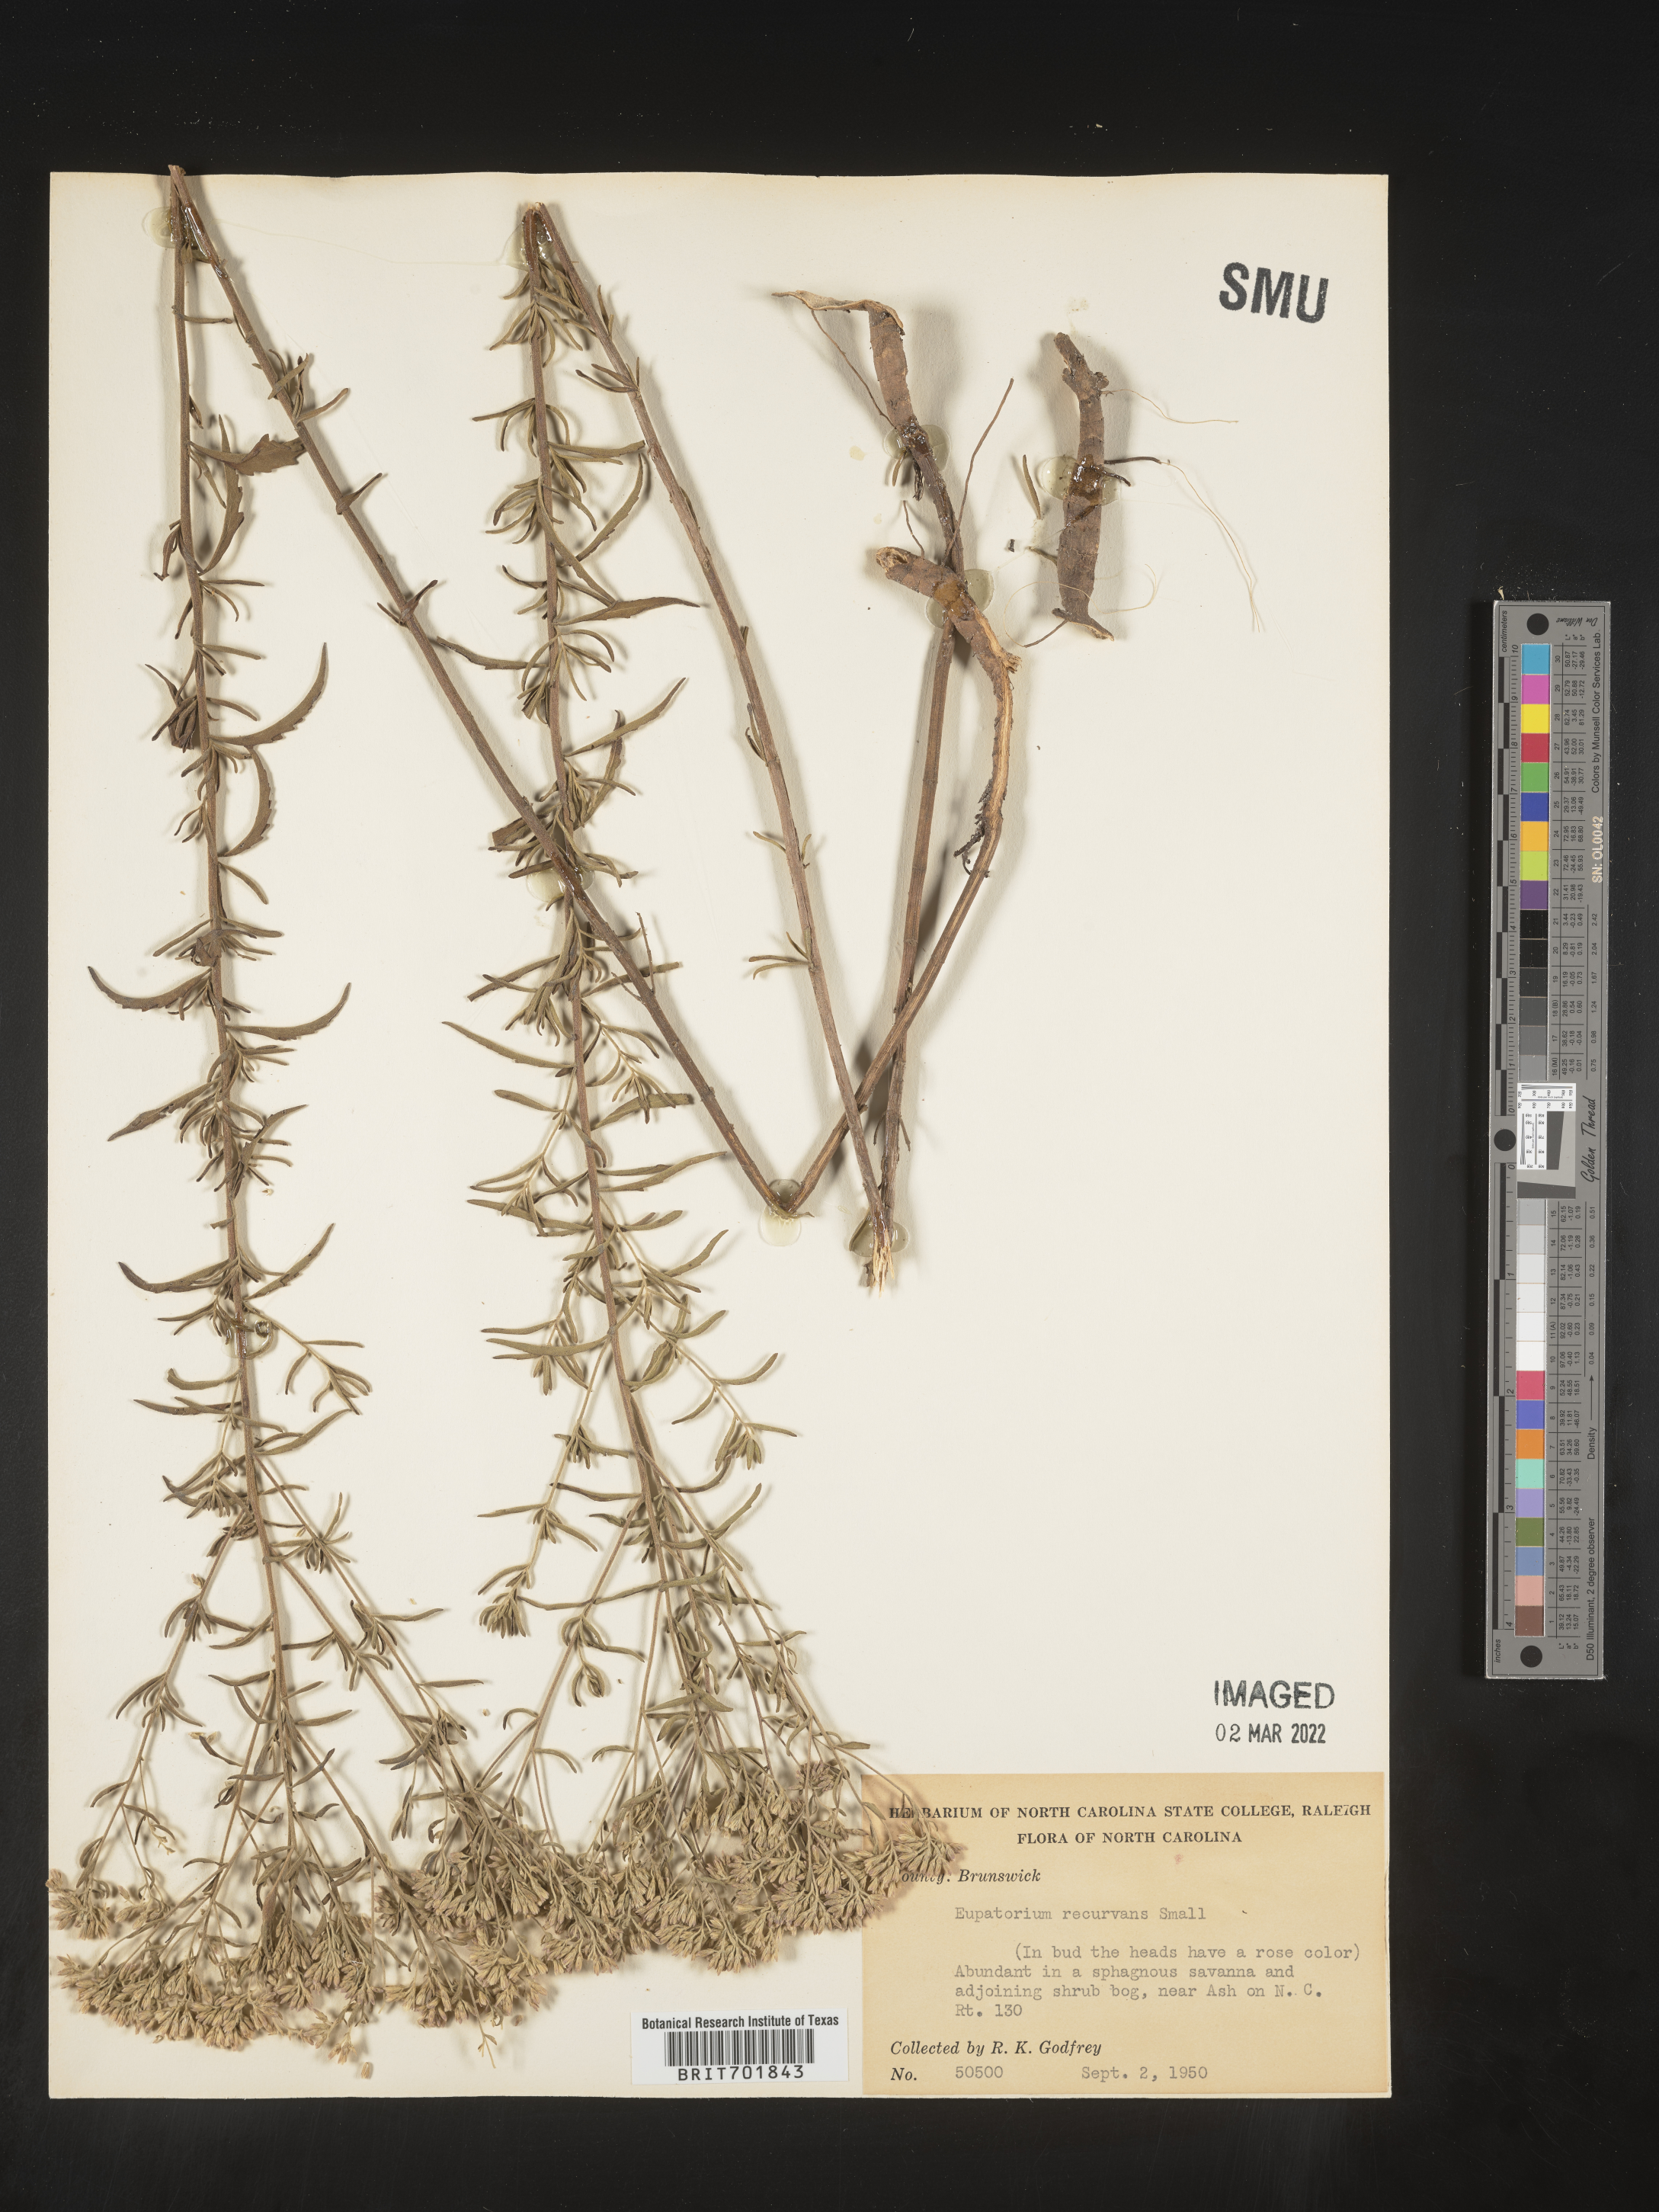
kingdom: Plantae
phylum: Tracheophyta
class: Magnoliopsida
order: Asterales
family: Asteraceae
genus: Eupatorium
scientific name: Eupatorium mohrii
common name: Mohr's thoroughwort
